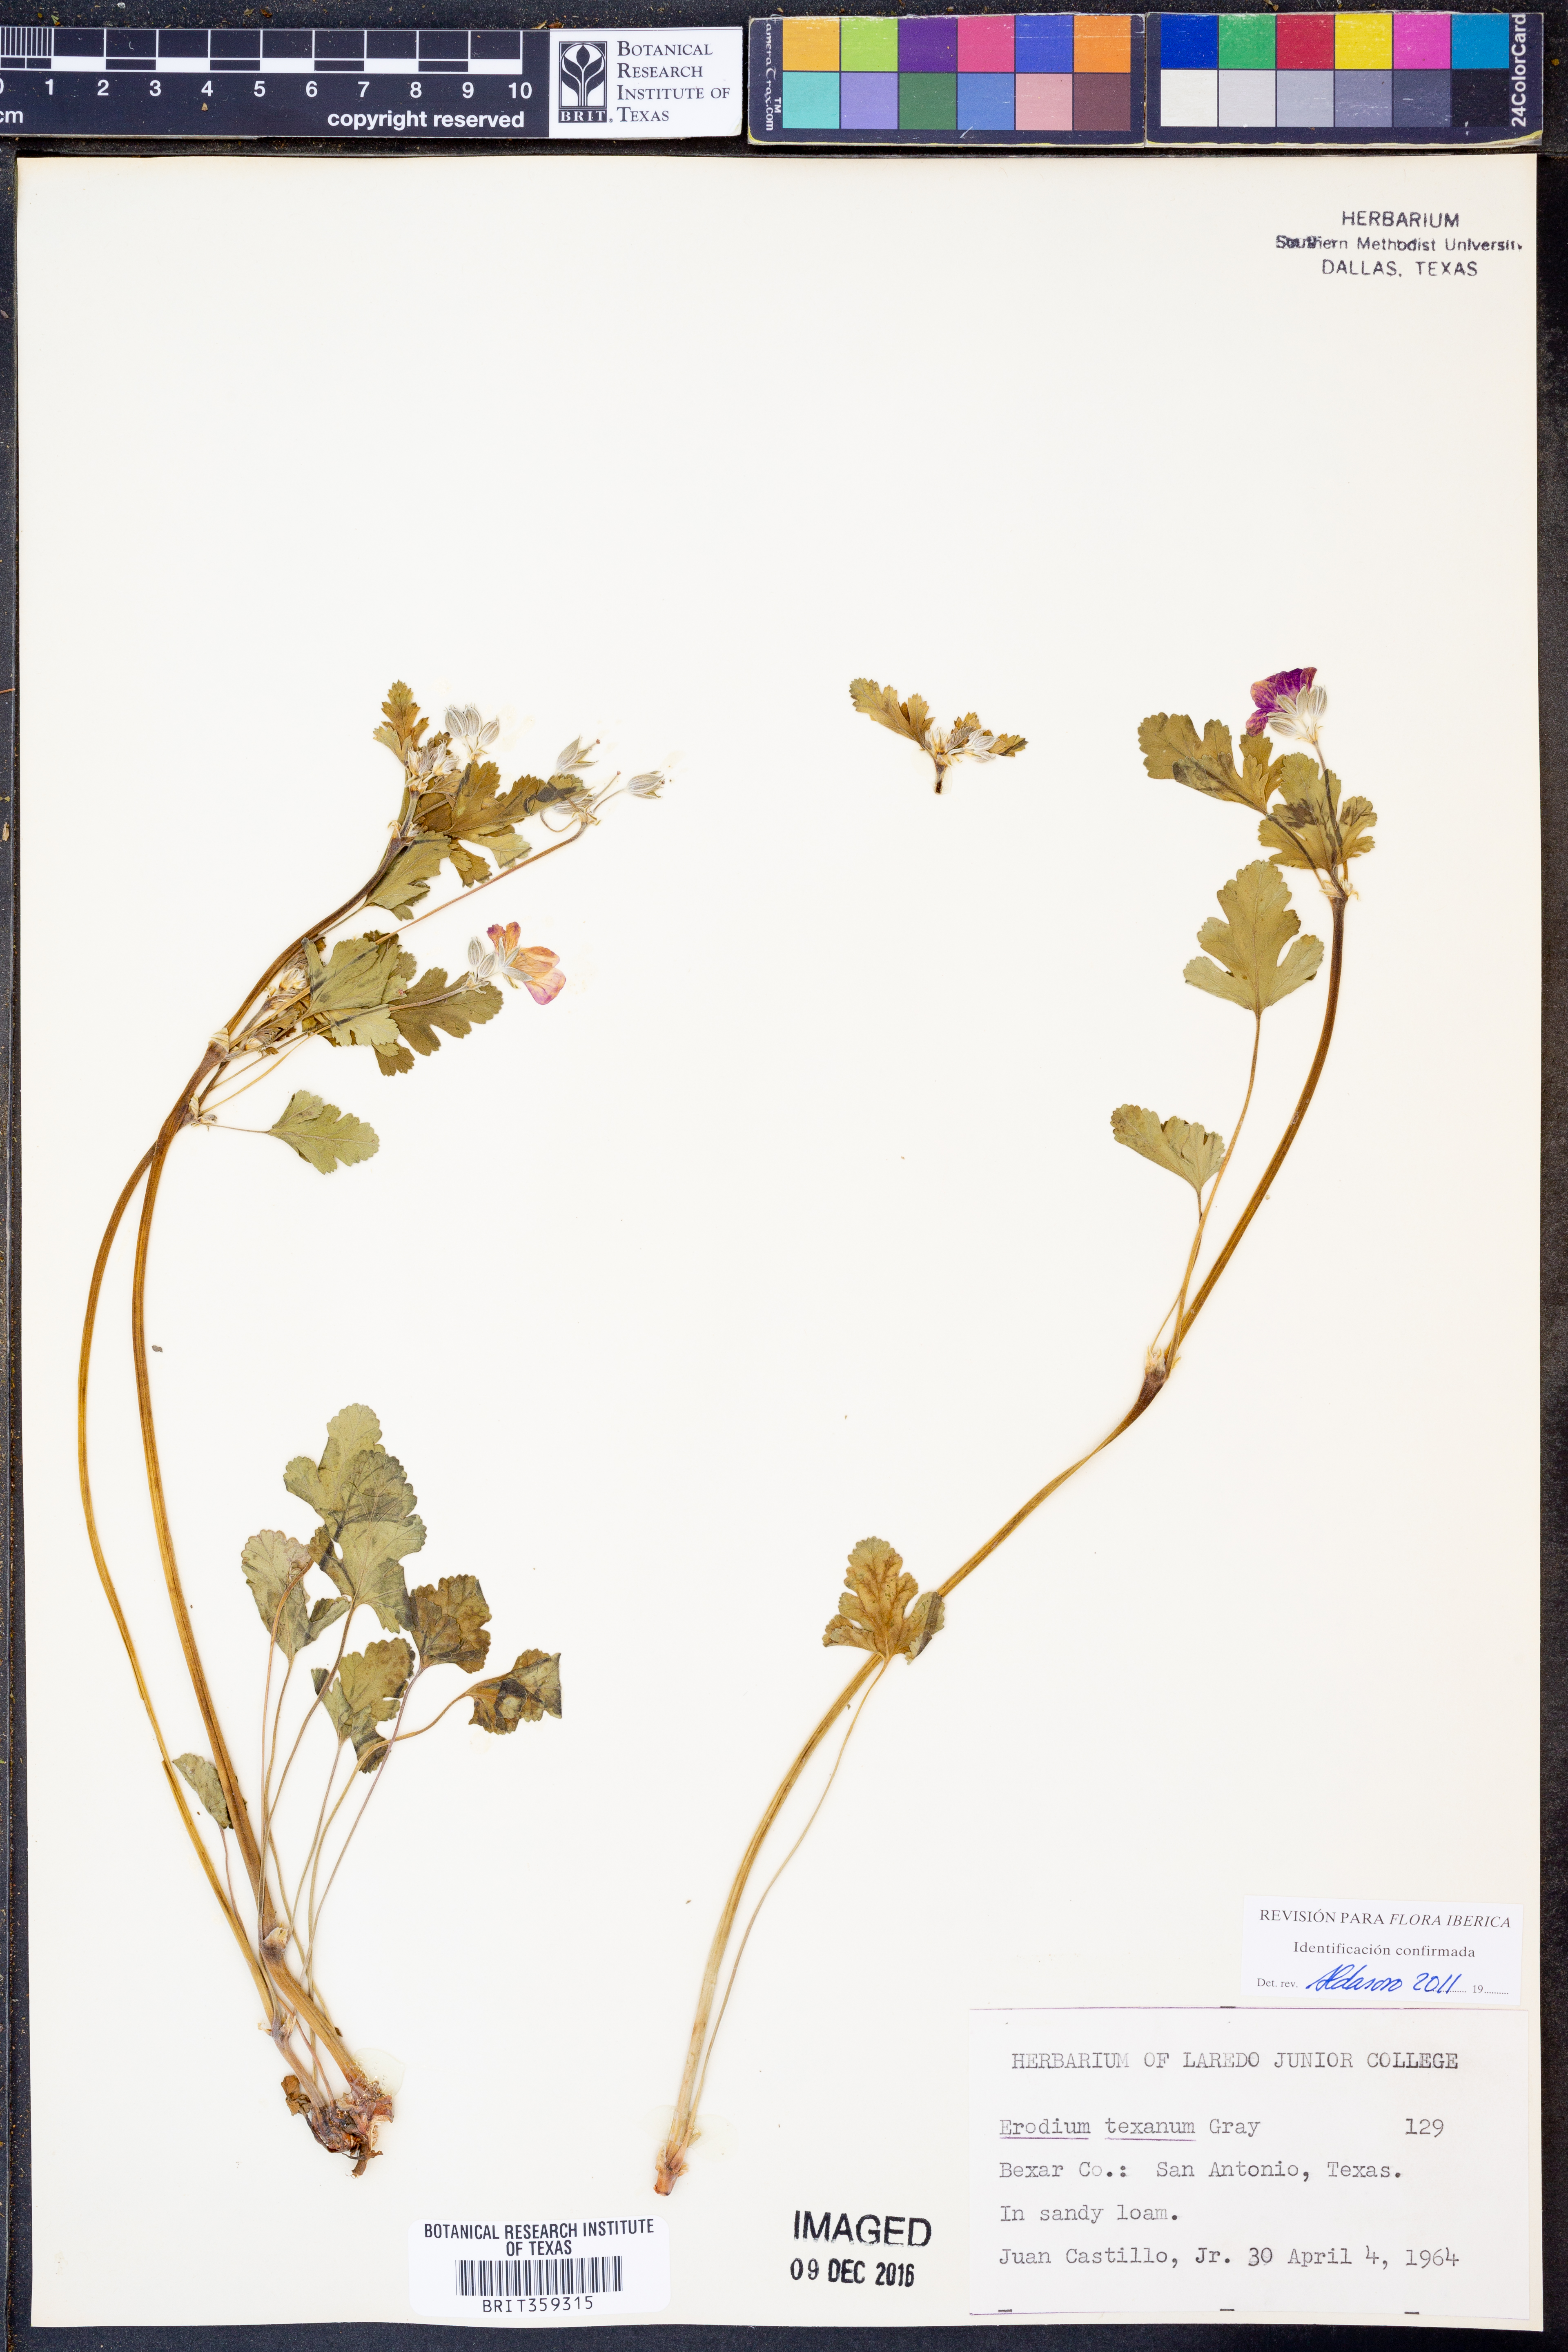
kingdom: Plantae
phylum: Tracheophyta
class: Magnoliopsida
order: Geraniales
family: Geraniaceae
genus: Erodium
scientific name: Erodium texanum
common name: Texas stork's-bill
